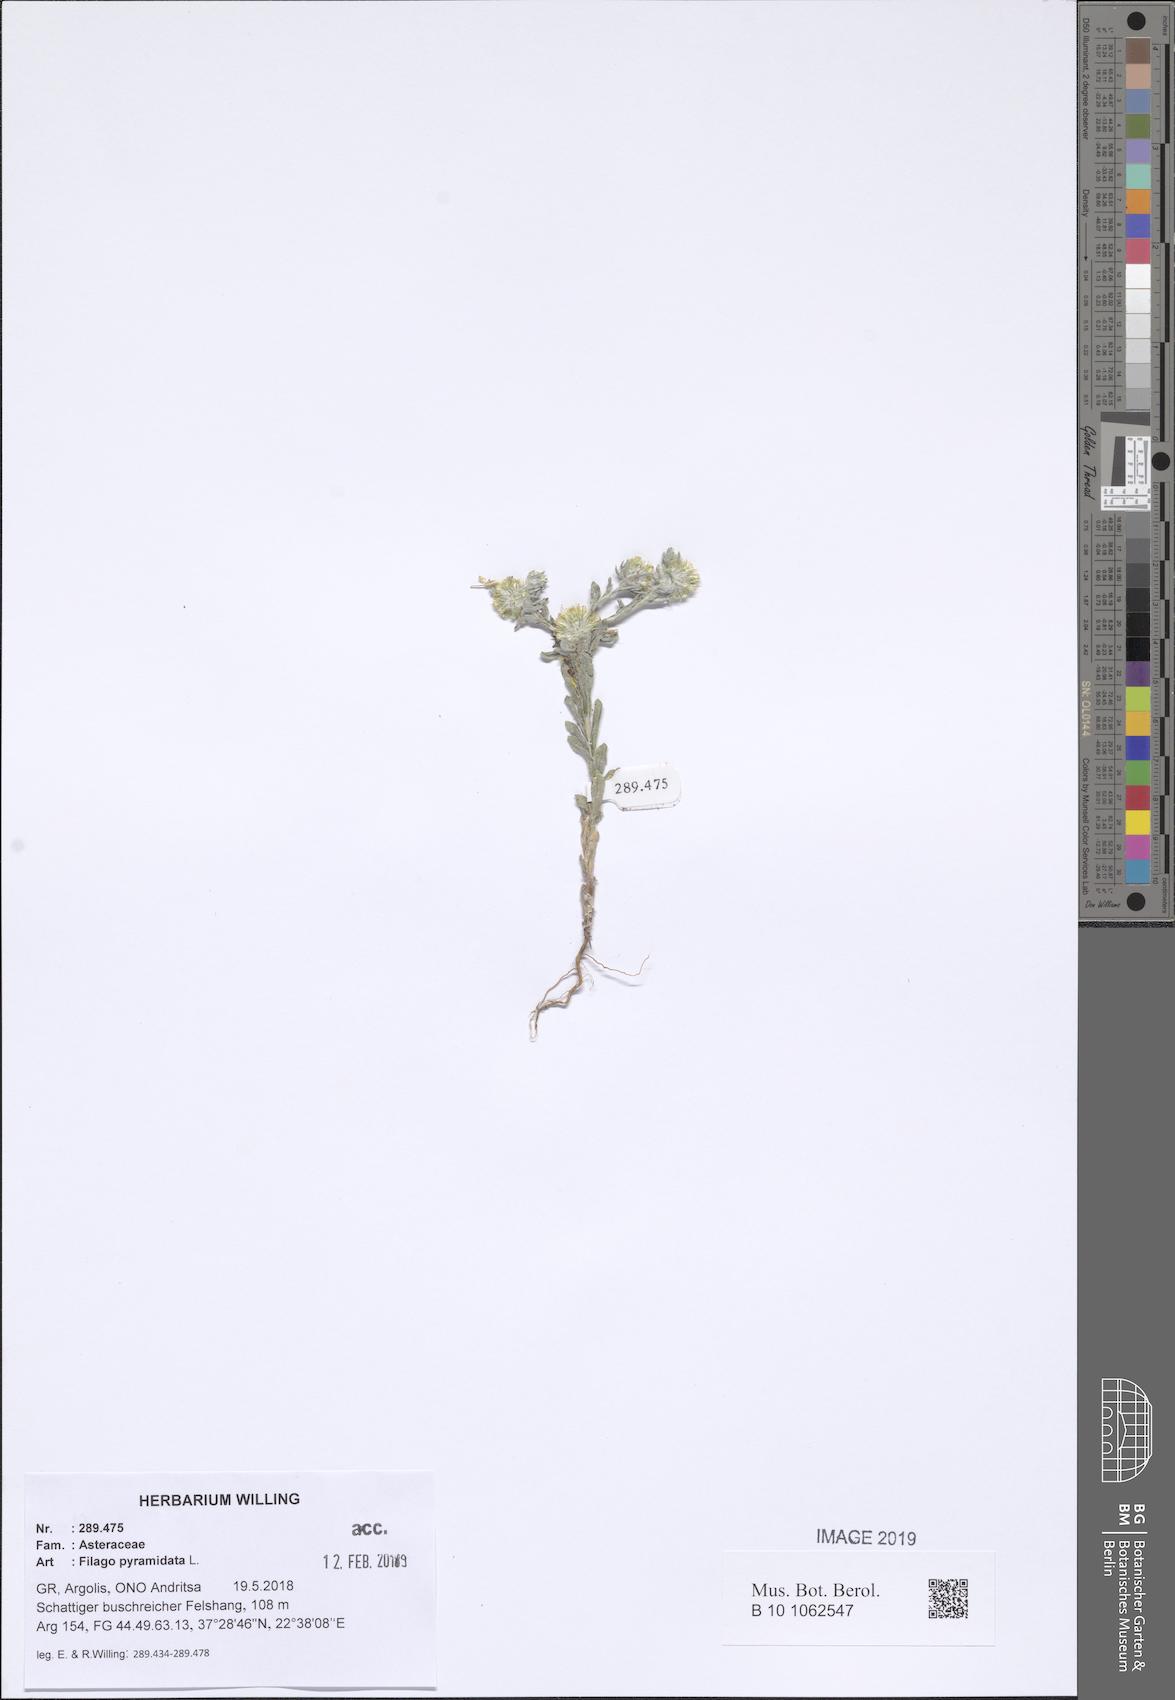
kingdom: Plantae
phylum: Tracheophyta
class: Magnoliopsida
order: Asterales
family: Asteraceae
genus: Filago
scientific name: Filago pyramidata
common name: Broad-leaved cudweed
